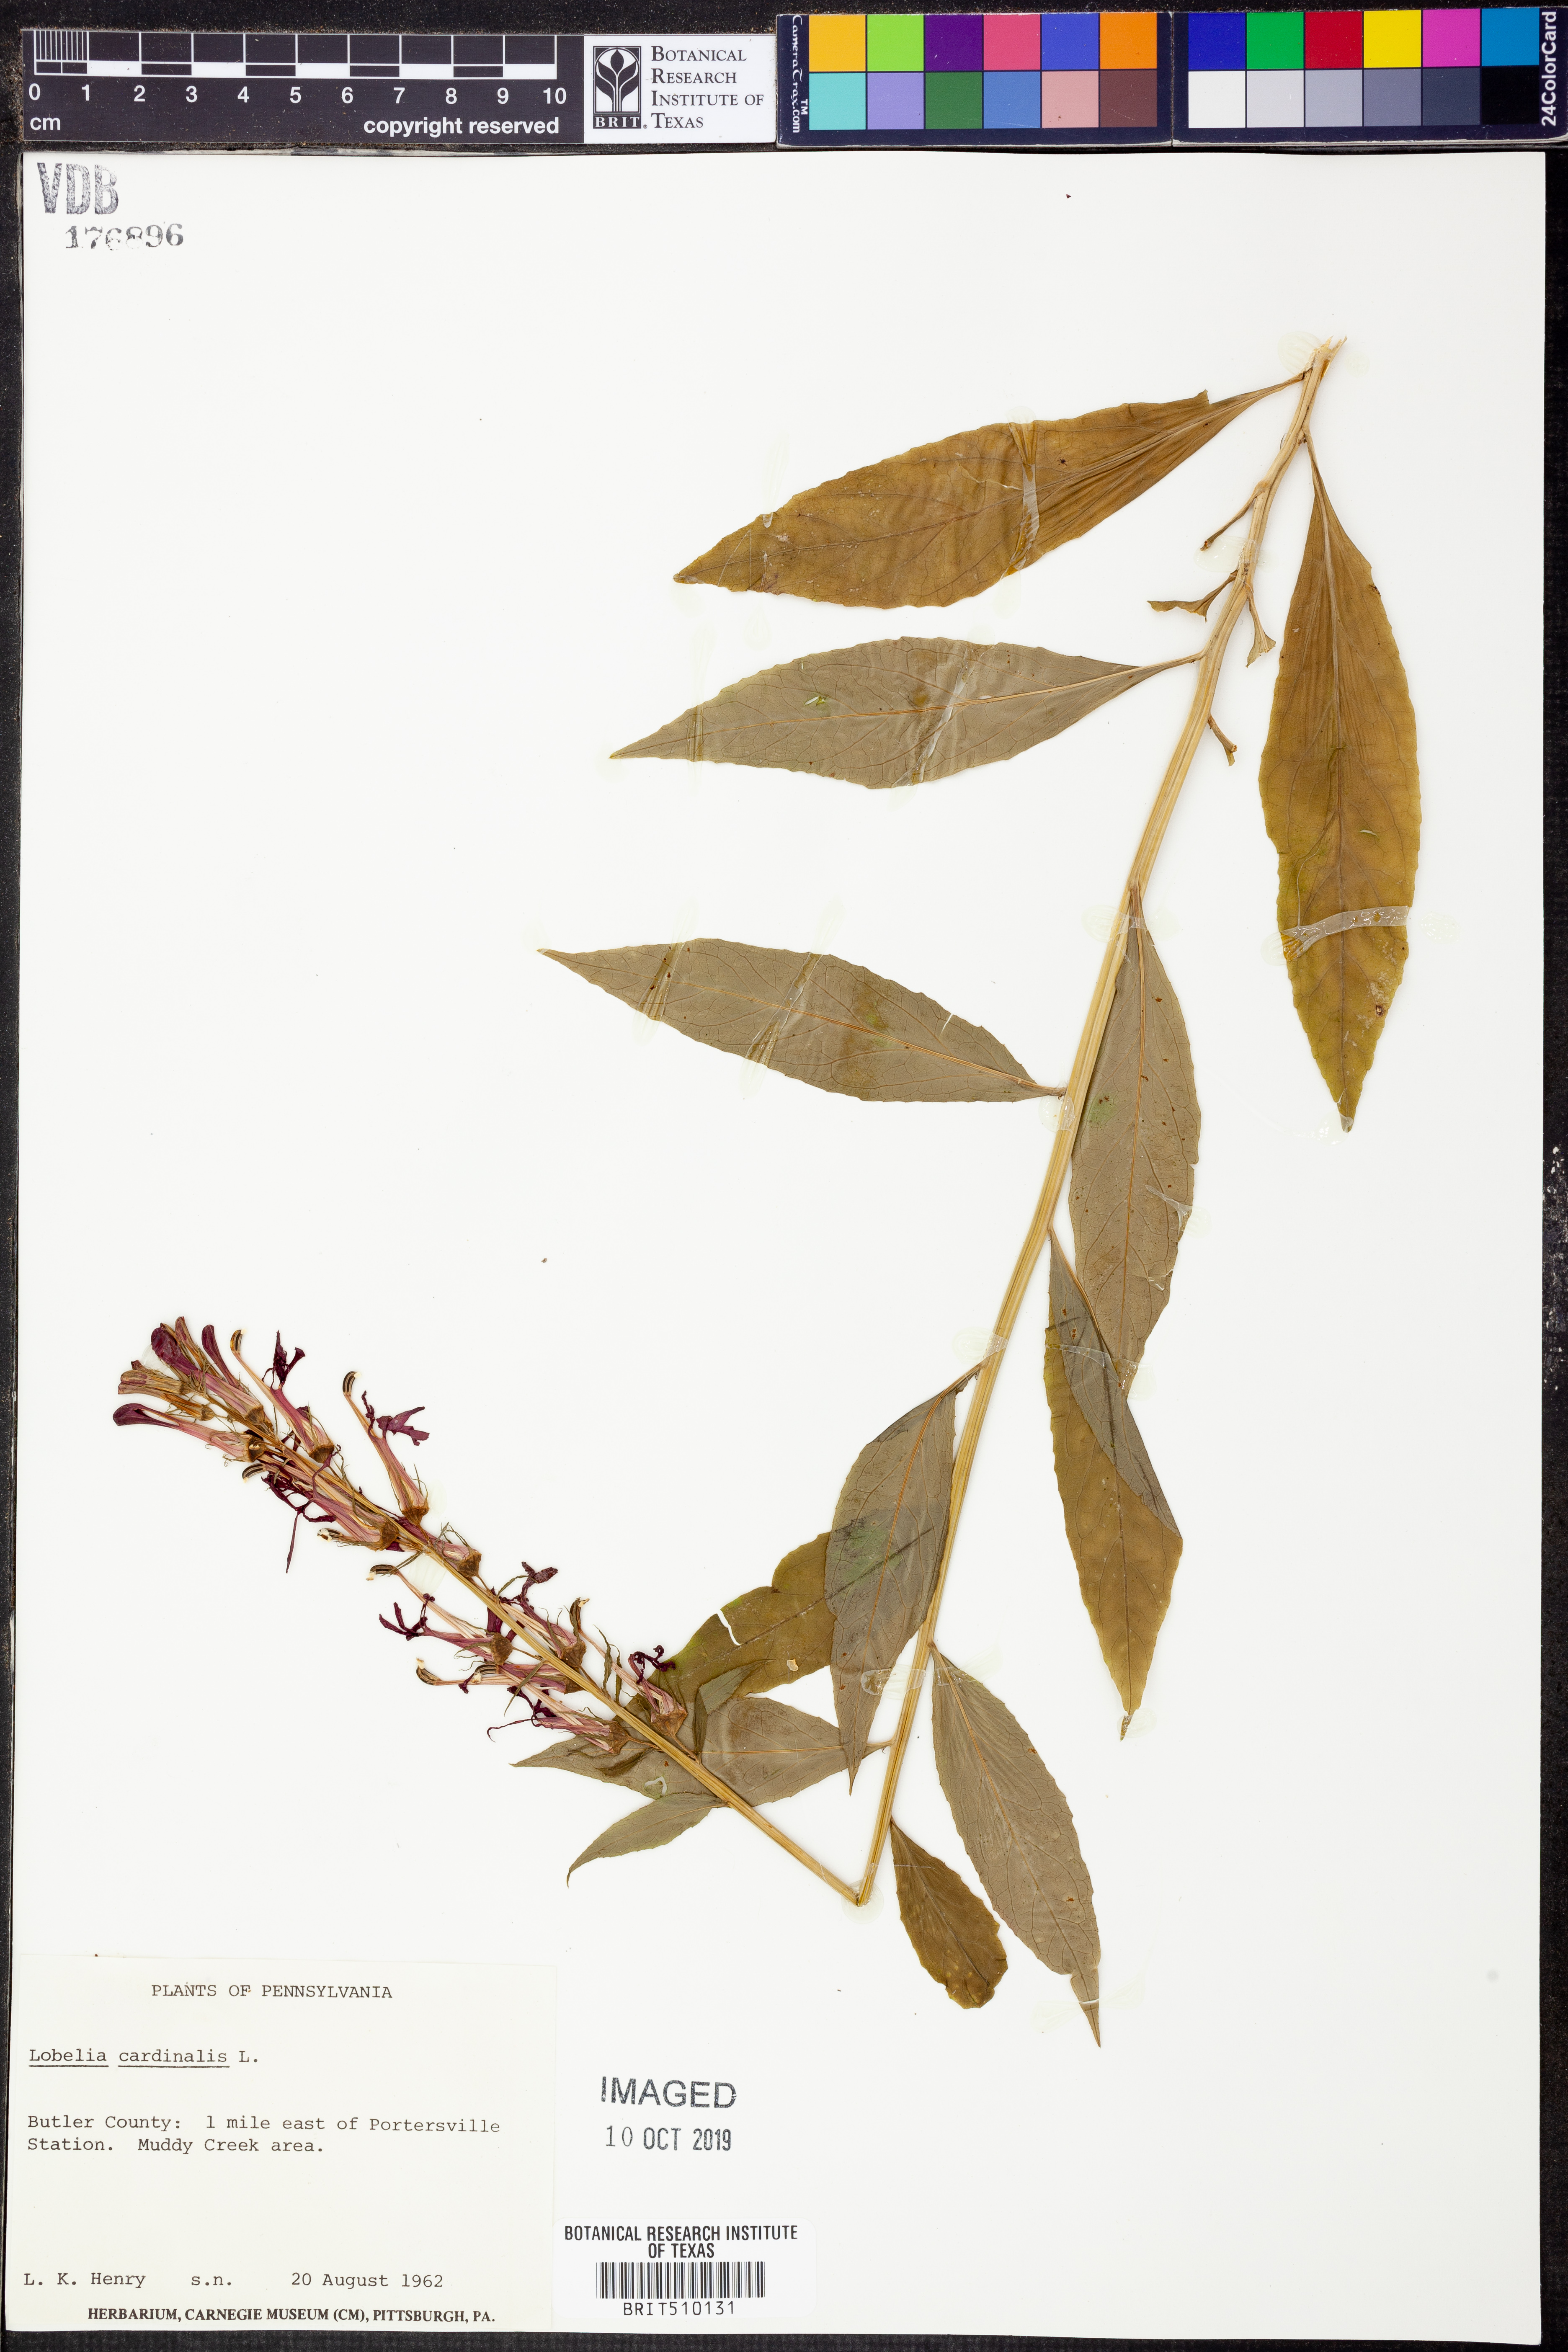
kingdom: Plantae
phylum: Tracheophyta
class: Magnoliopsida
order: Asterales
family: Campanulaceae
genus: Lobelia
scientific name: Lobelia cardinalis
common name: Cardinal flower
